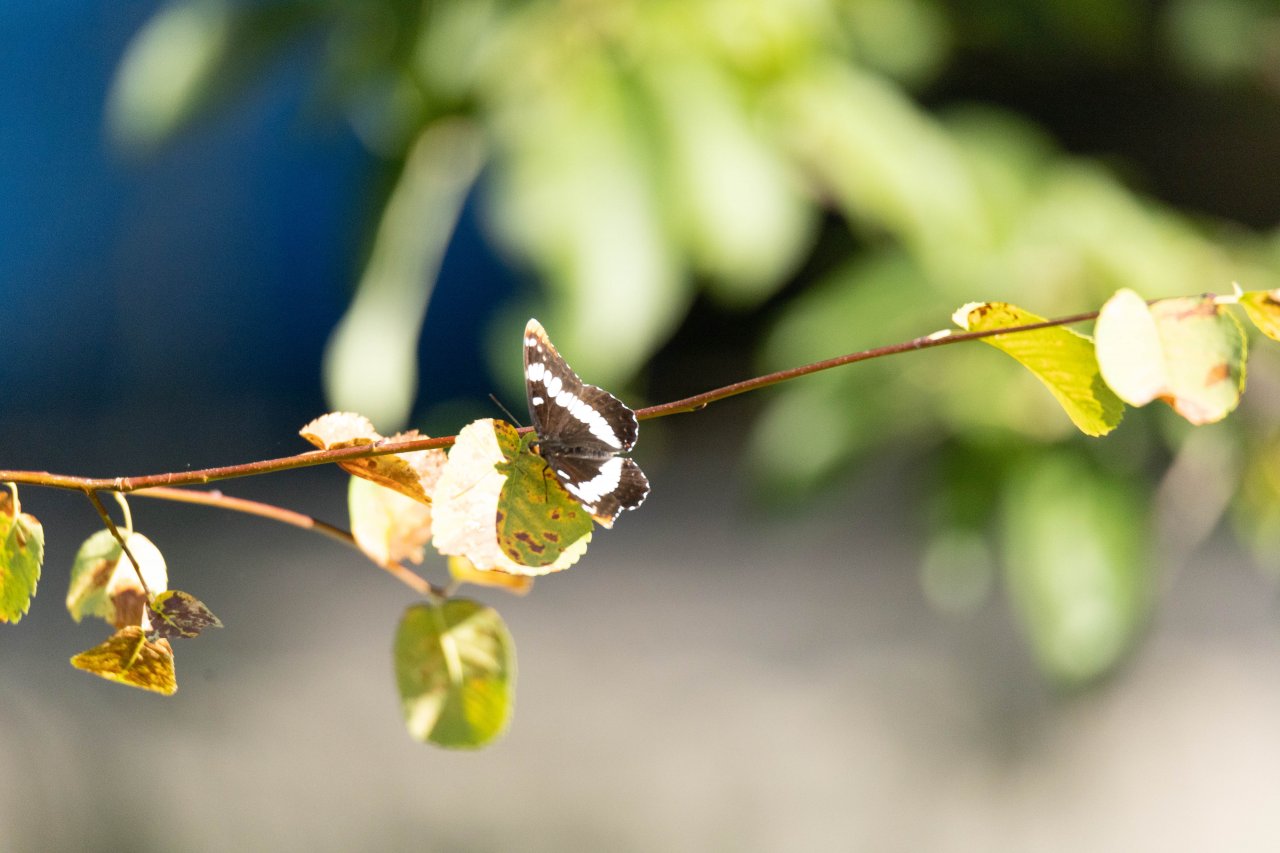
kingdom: Animalia
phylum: Arthropoda
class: Insecta
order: Lepidoptera
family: Nymphalidae
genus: Limenitis
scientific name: Limenitis arthemis
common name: Red-spotted Admiral
